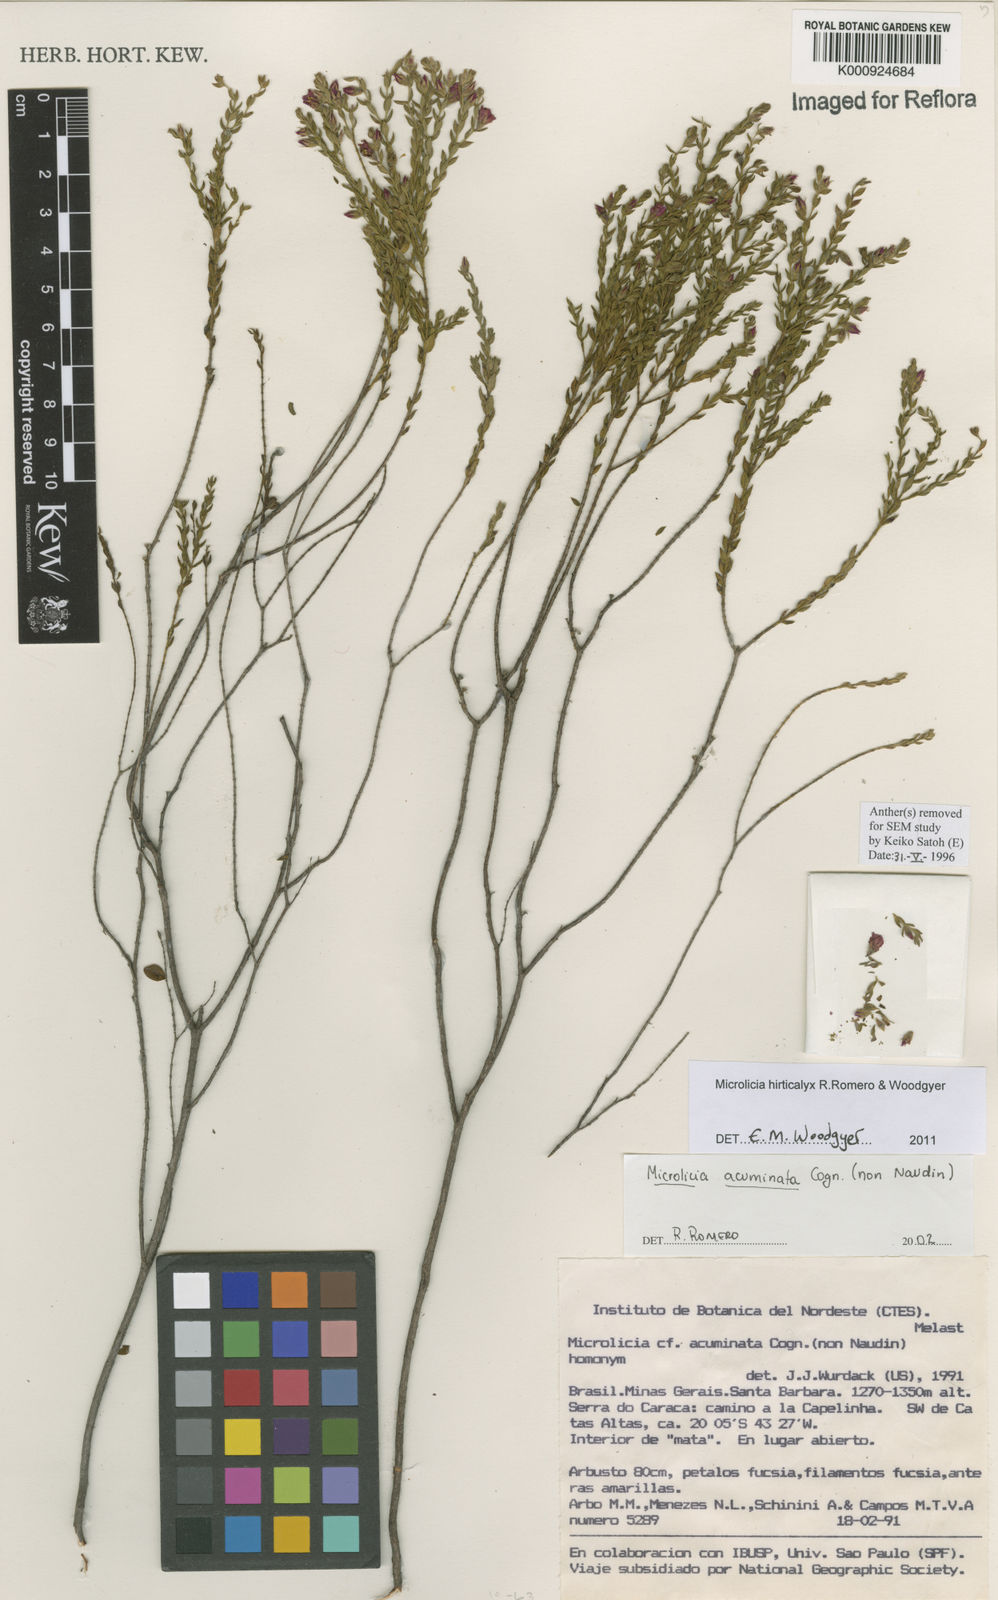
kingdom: Plantae
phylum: Tracheophyta
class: Magnoliopsida
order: Myrtales
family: Melastomataceae
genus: Microlicia
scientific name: Microlicia hirticalyx
